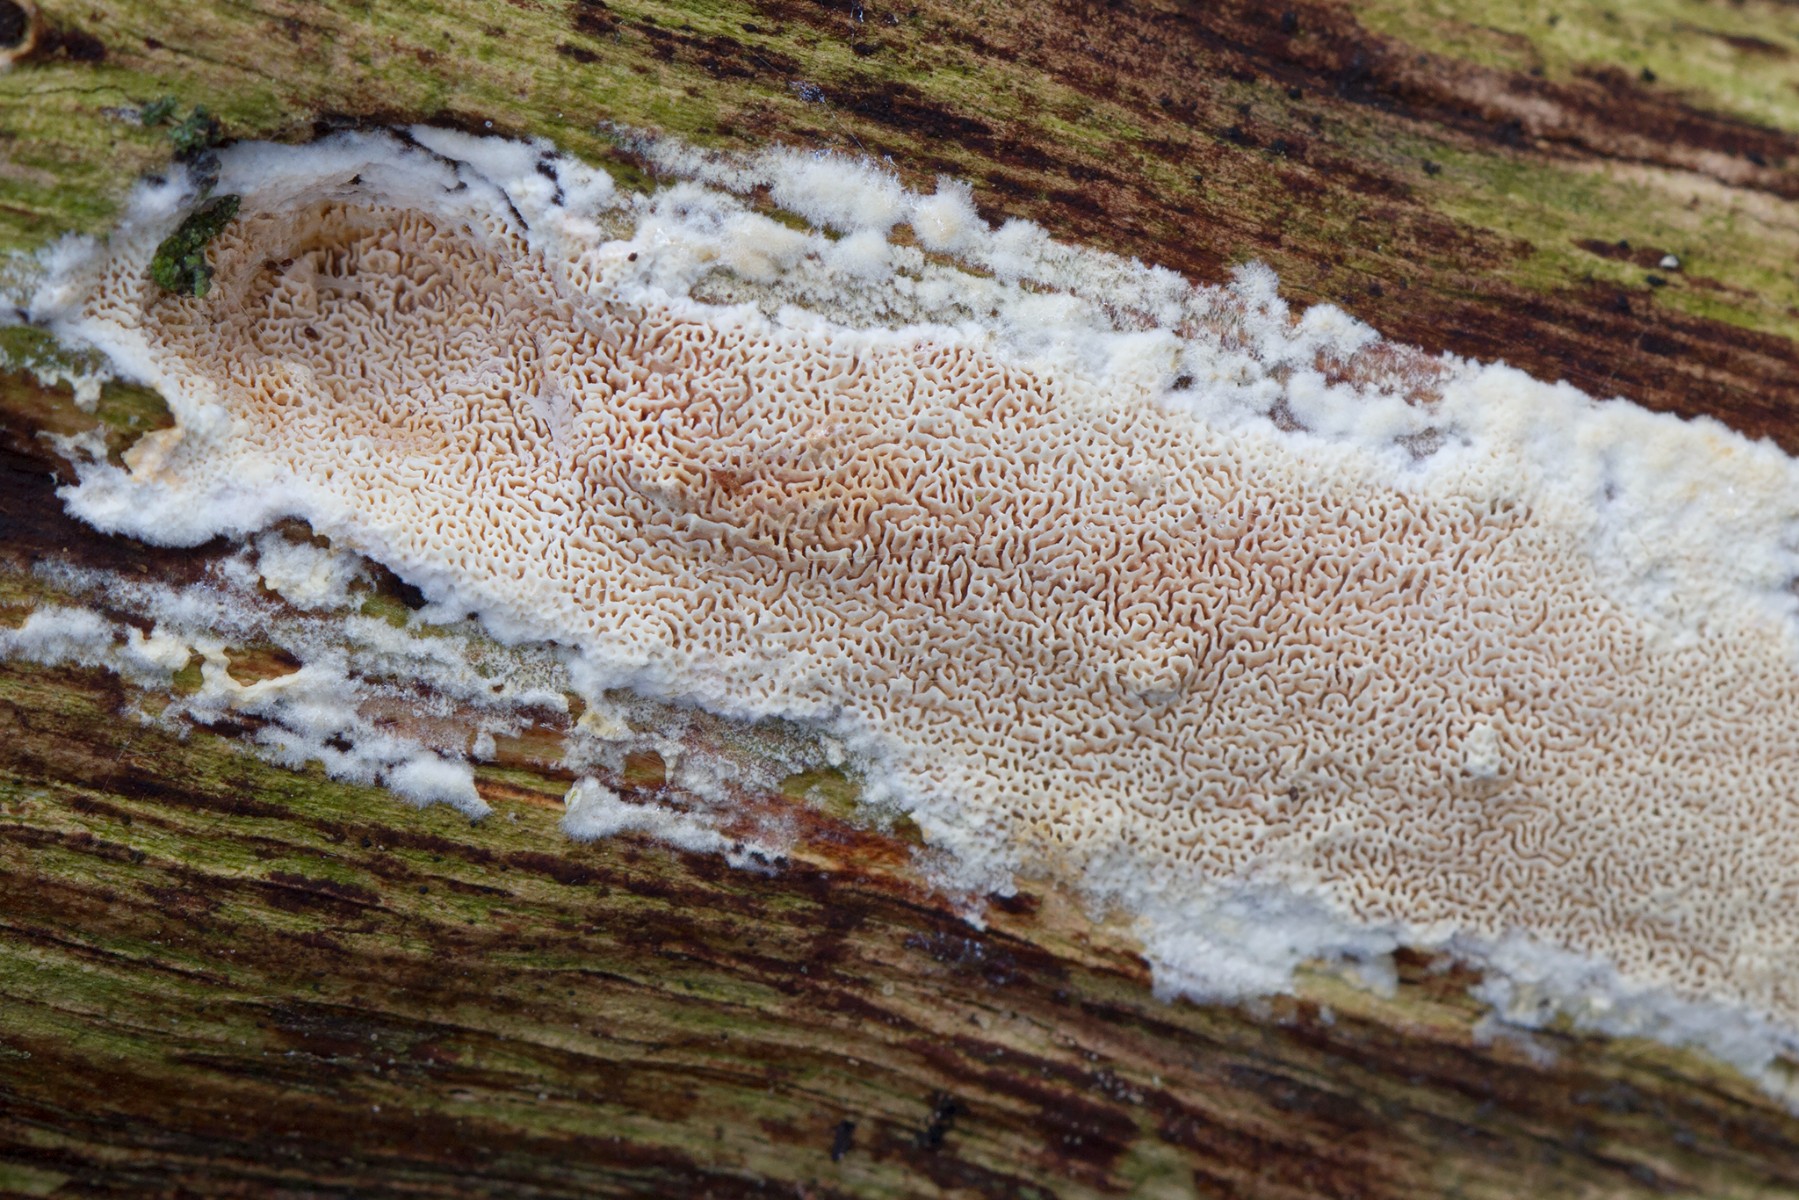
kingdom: Fungi
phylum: Basidiomycota
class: Agaricomycetes
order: Hymenochaetales
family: Schizoporaceae
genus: Xylodon
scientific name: Xylodon subtropicus
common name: labyrint-tandsvamp
